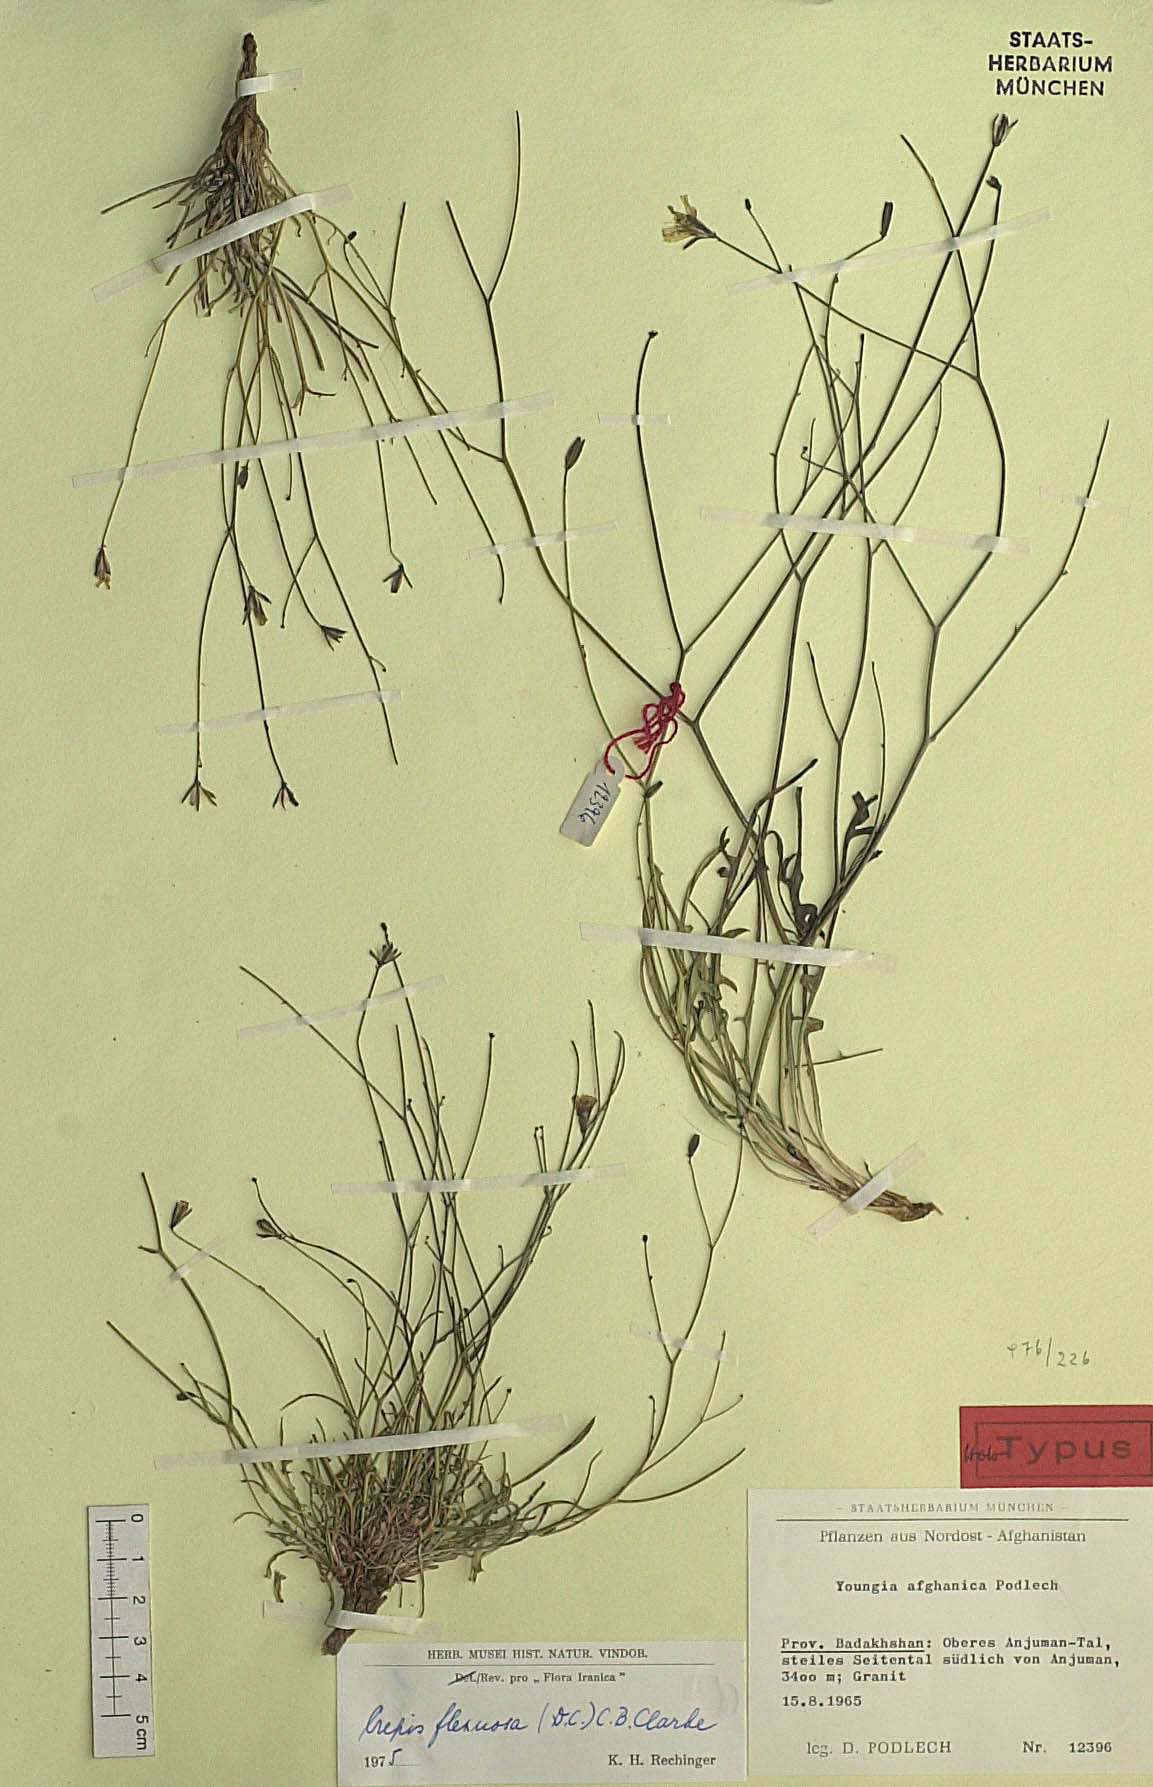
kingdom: Plantae
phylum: Tracheophyta
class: Magnoliopsida
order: Asterales
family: Asteraceae
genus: Askellia
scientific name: Askellia flexuosa
